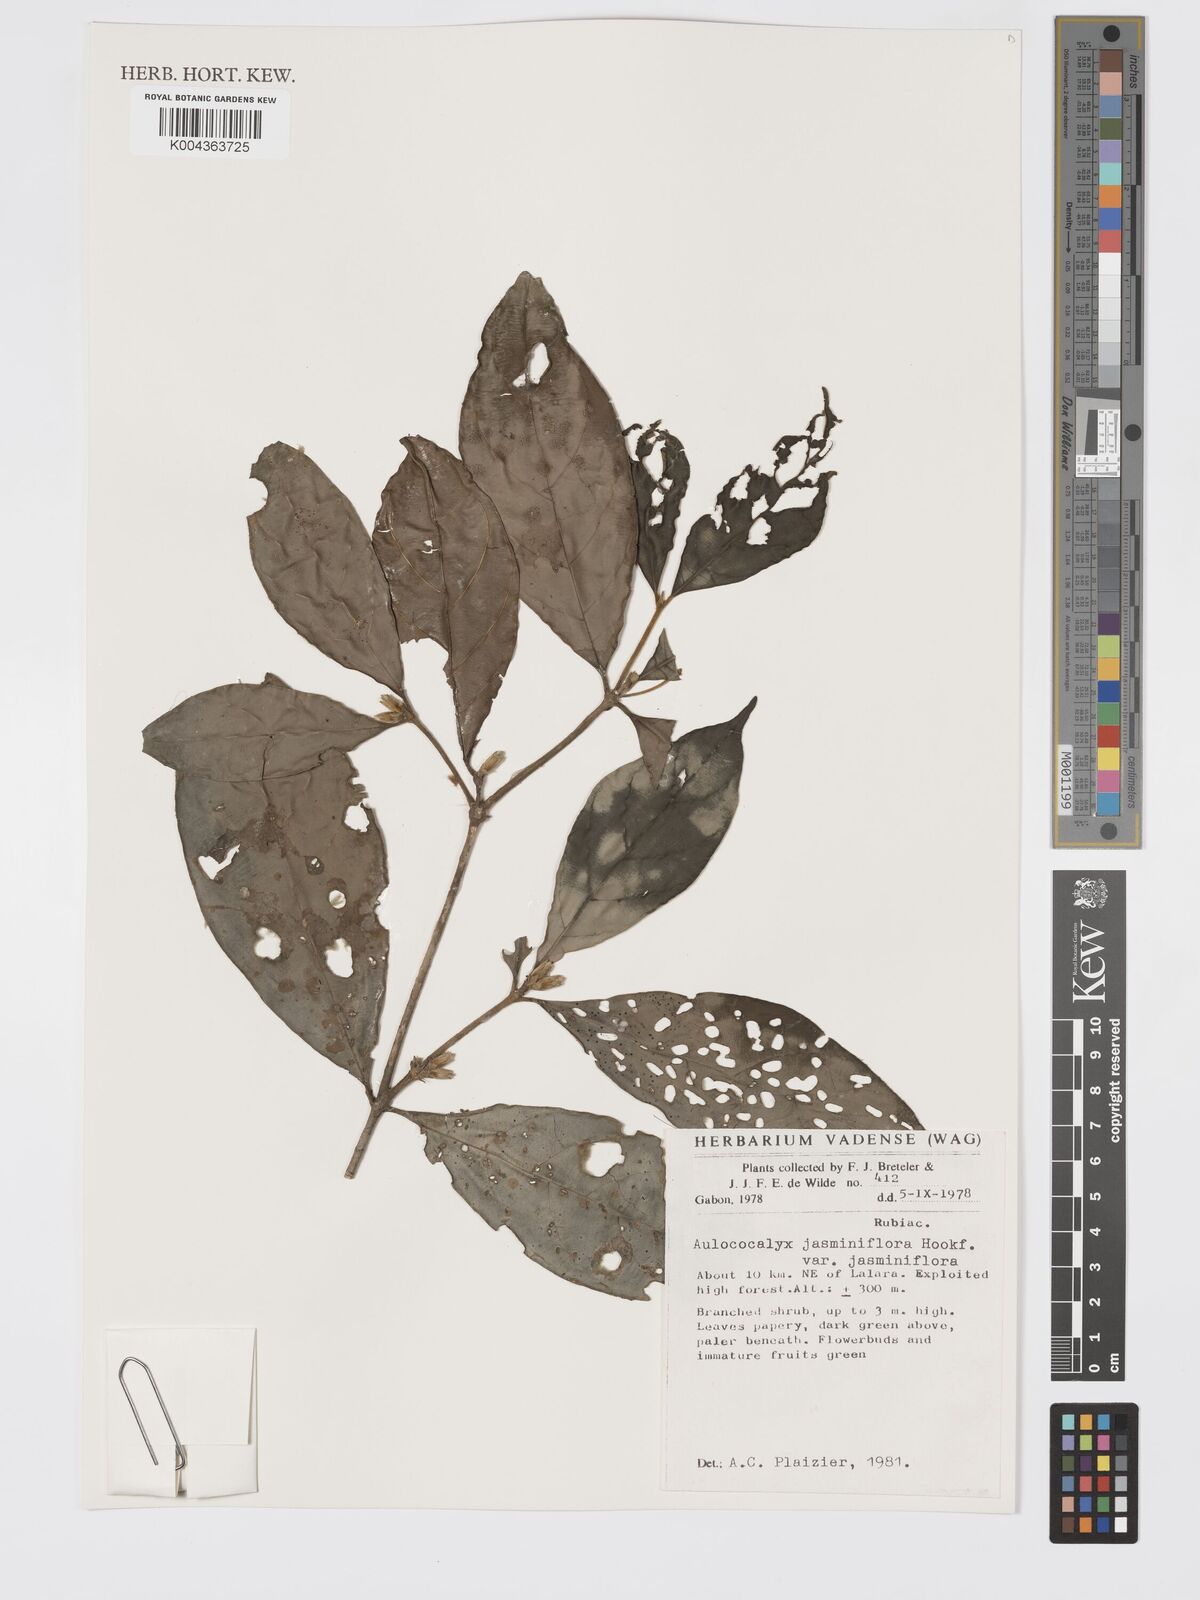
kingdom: Plantae
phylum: Tracheophyta
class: Magnoliopsida
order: Gentianales
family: Rubiaceae
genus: Aulacocalyx
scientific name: Aulacocalyx jasminiflora
